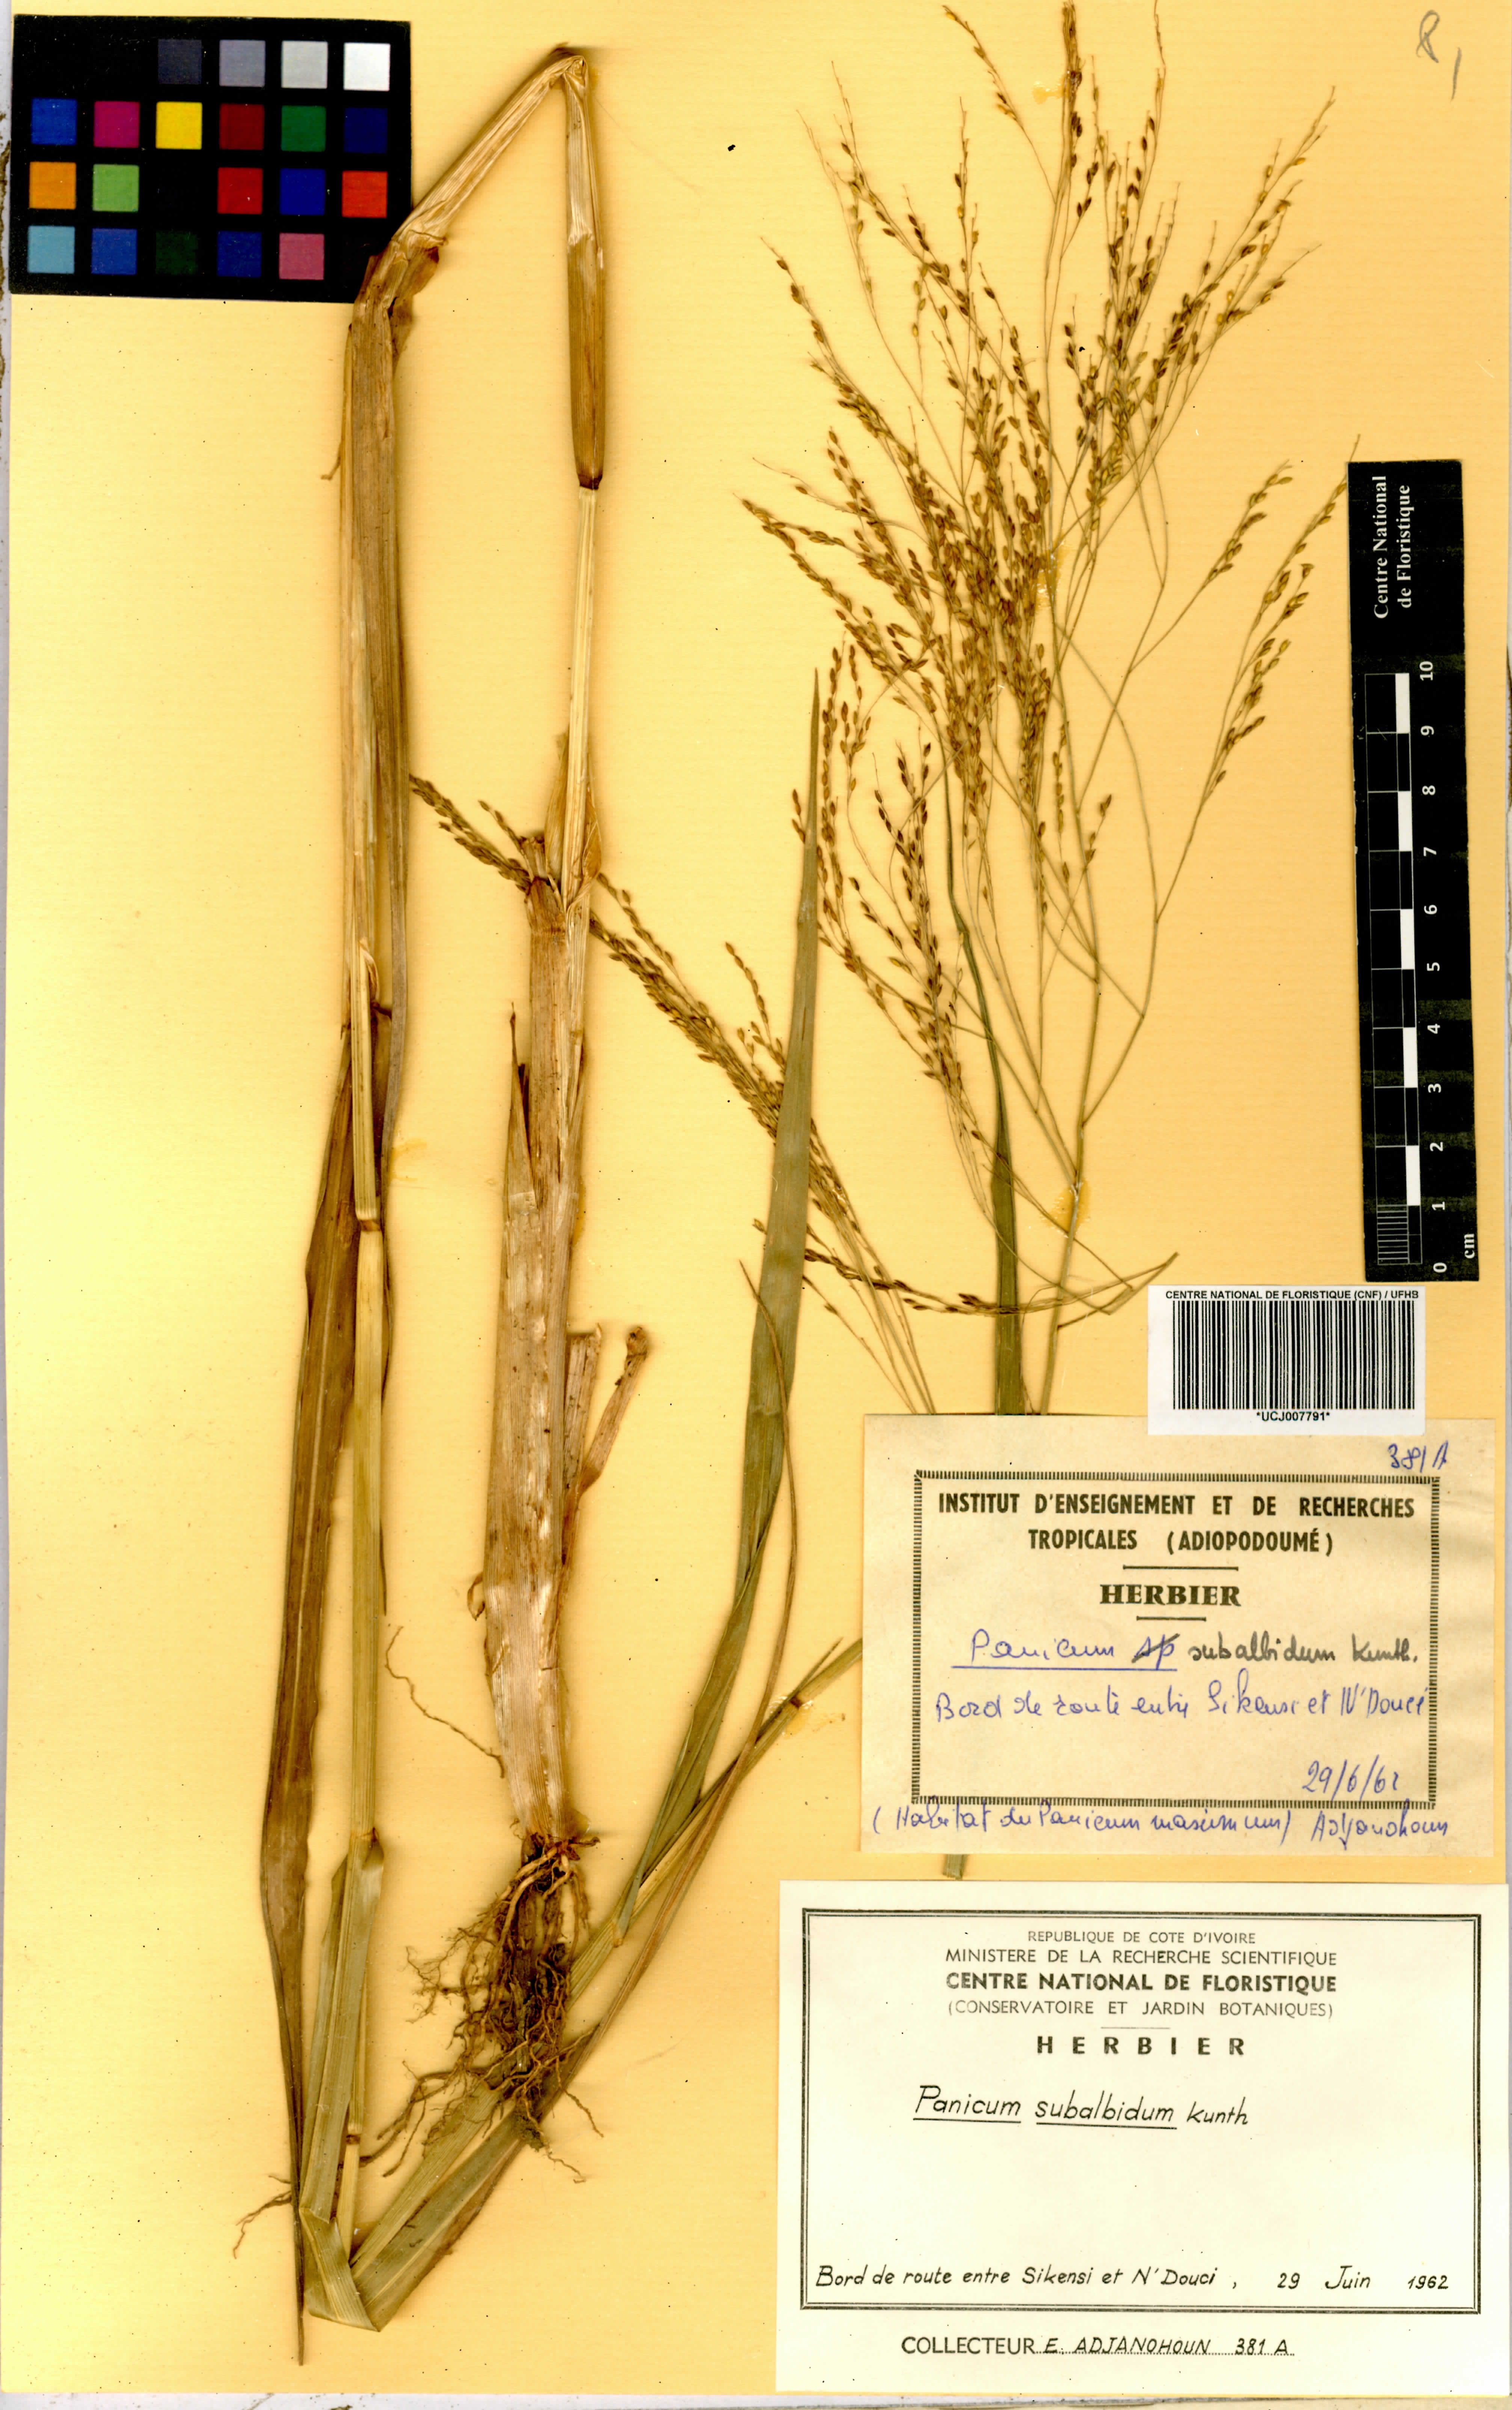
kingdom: Plantae
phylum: Tracheophyta
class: Liliopsida
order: Poales
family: Poaceae
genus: Panicum
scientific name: Panicum subalbidum
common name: Elbow buffalo grass
